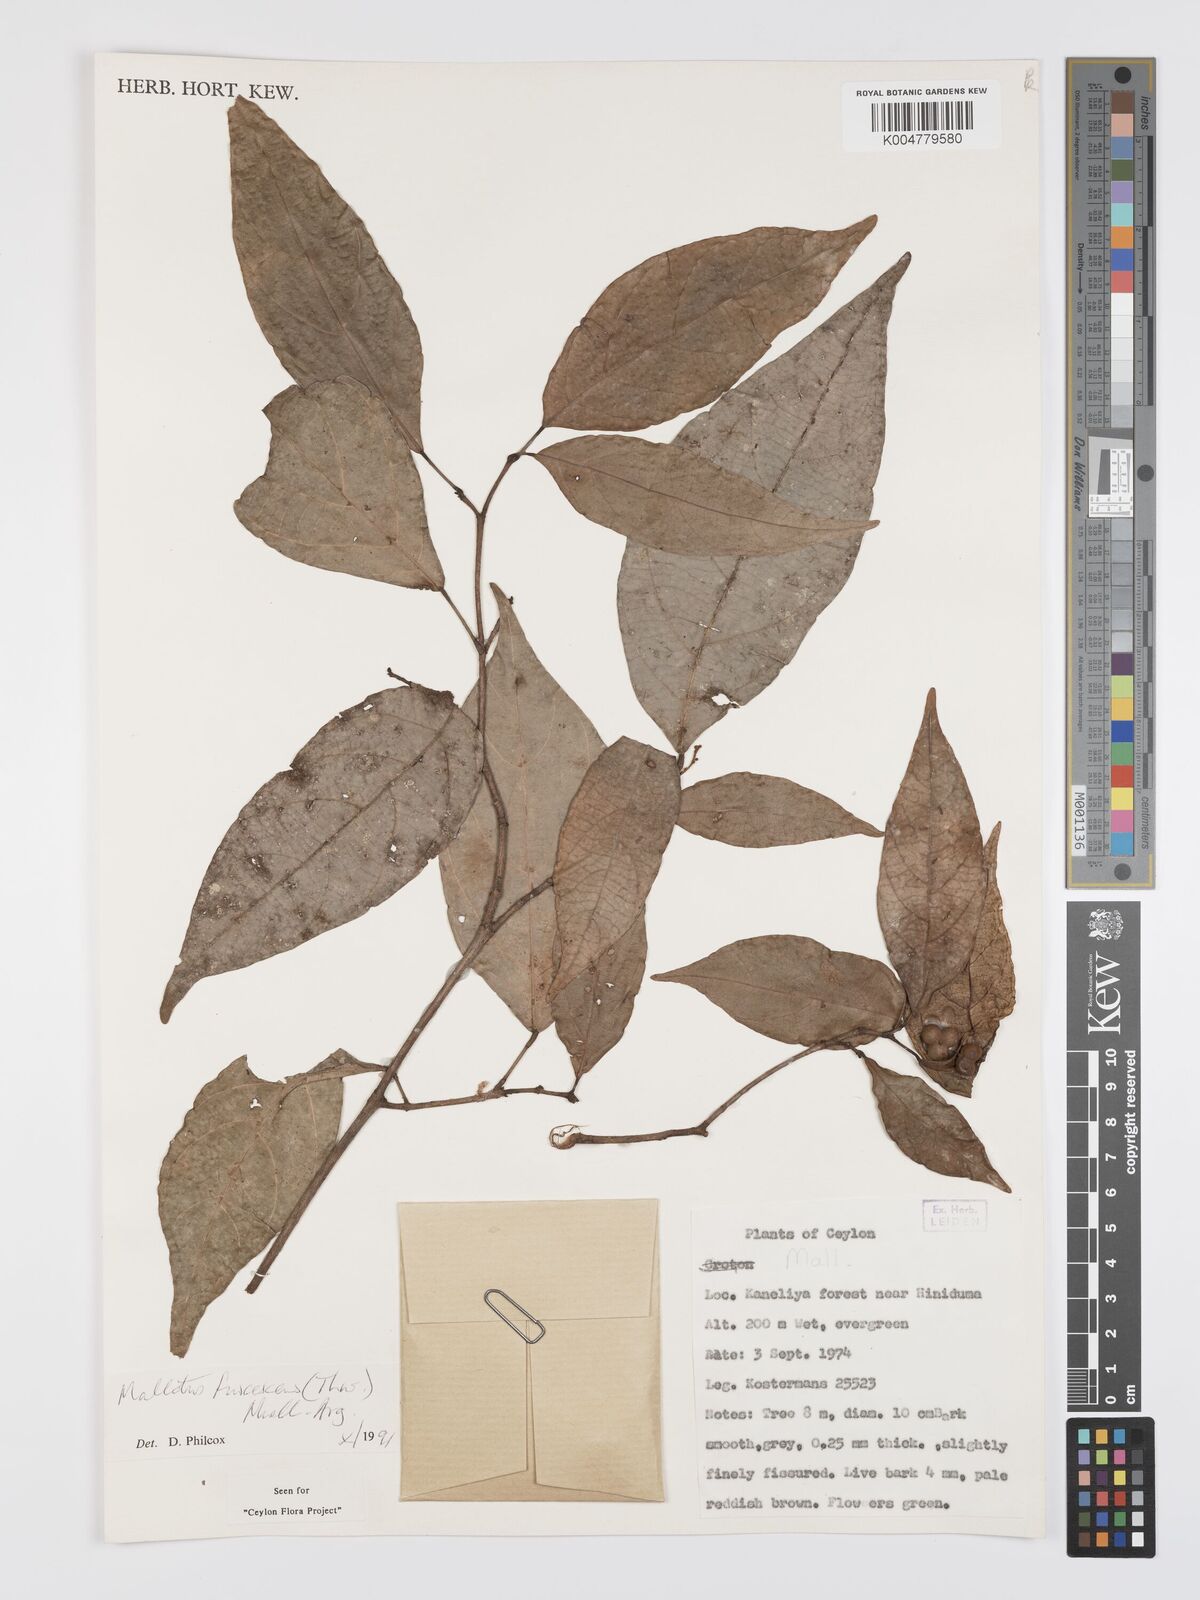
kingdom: Plantae
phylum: Tracheophyta
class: Magnoliopsida
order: Malpighiales
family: Euphorbiaceae
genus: Mallotus
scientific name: Mallotus fuscescens
